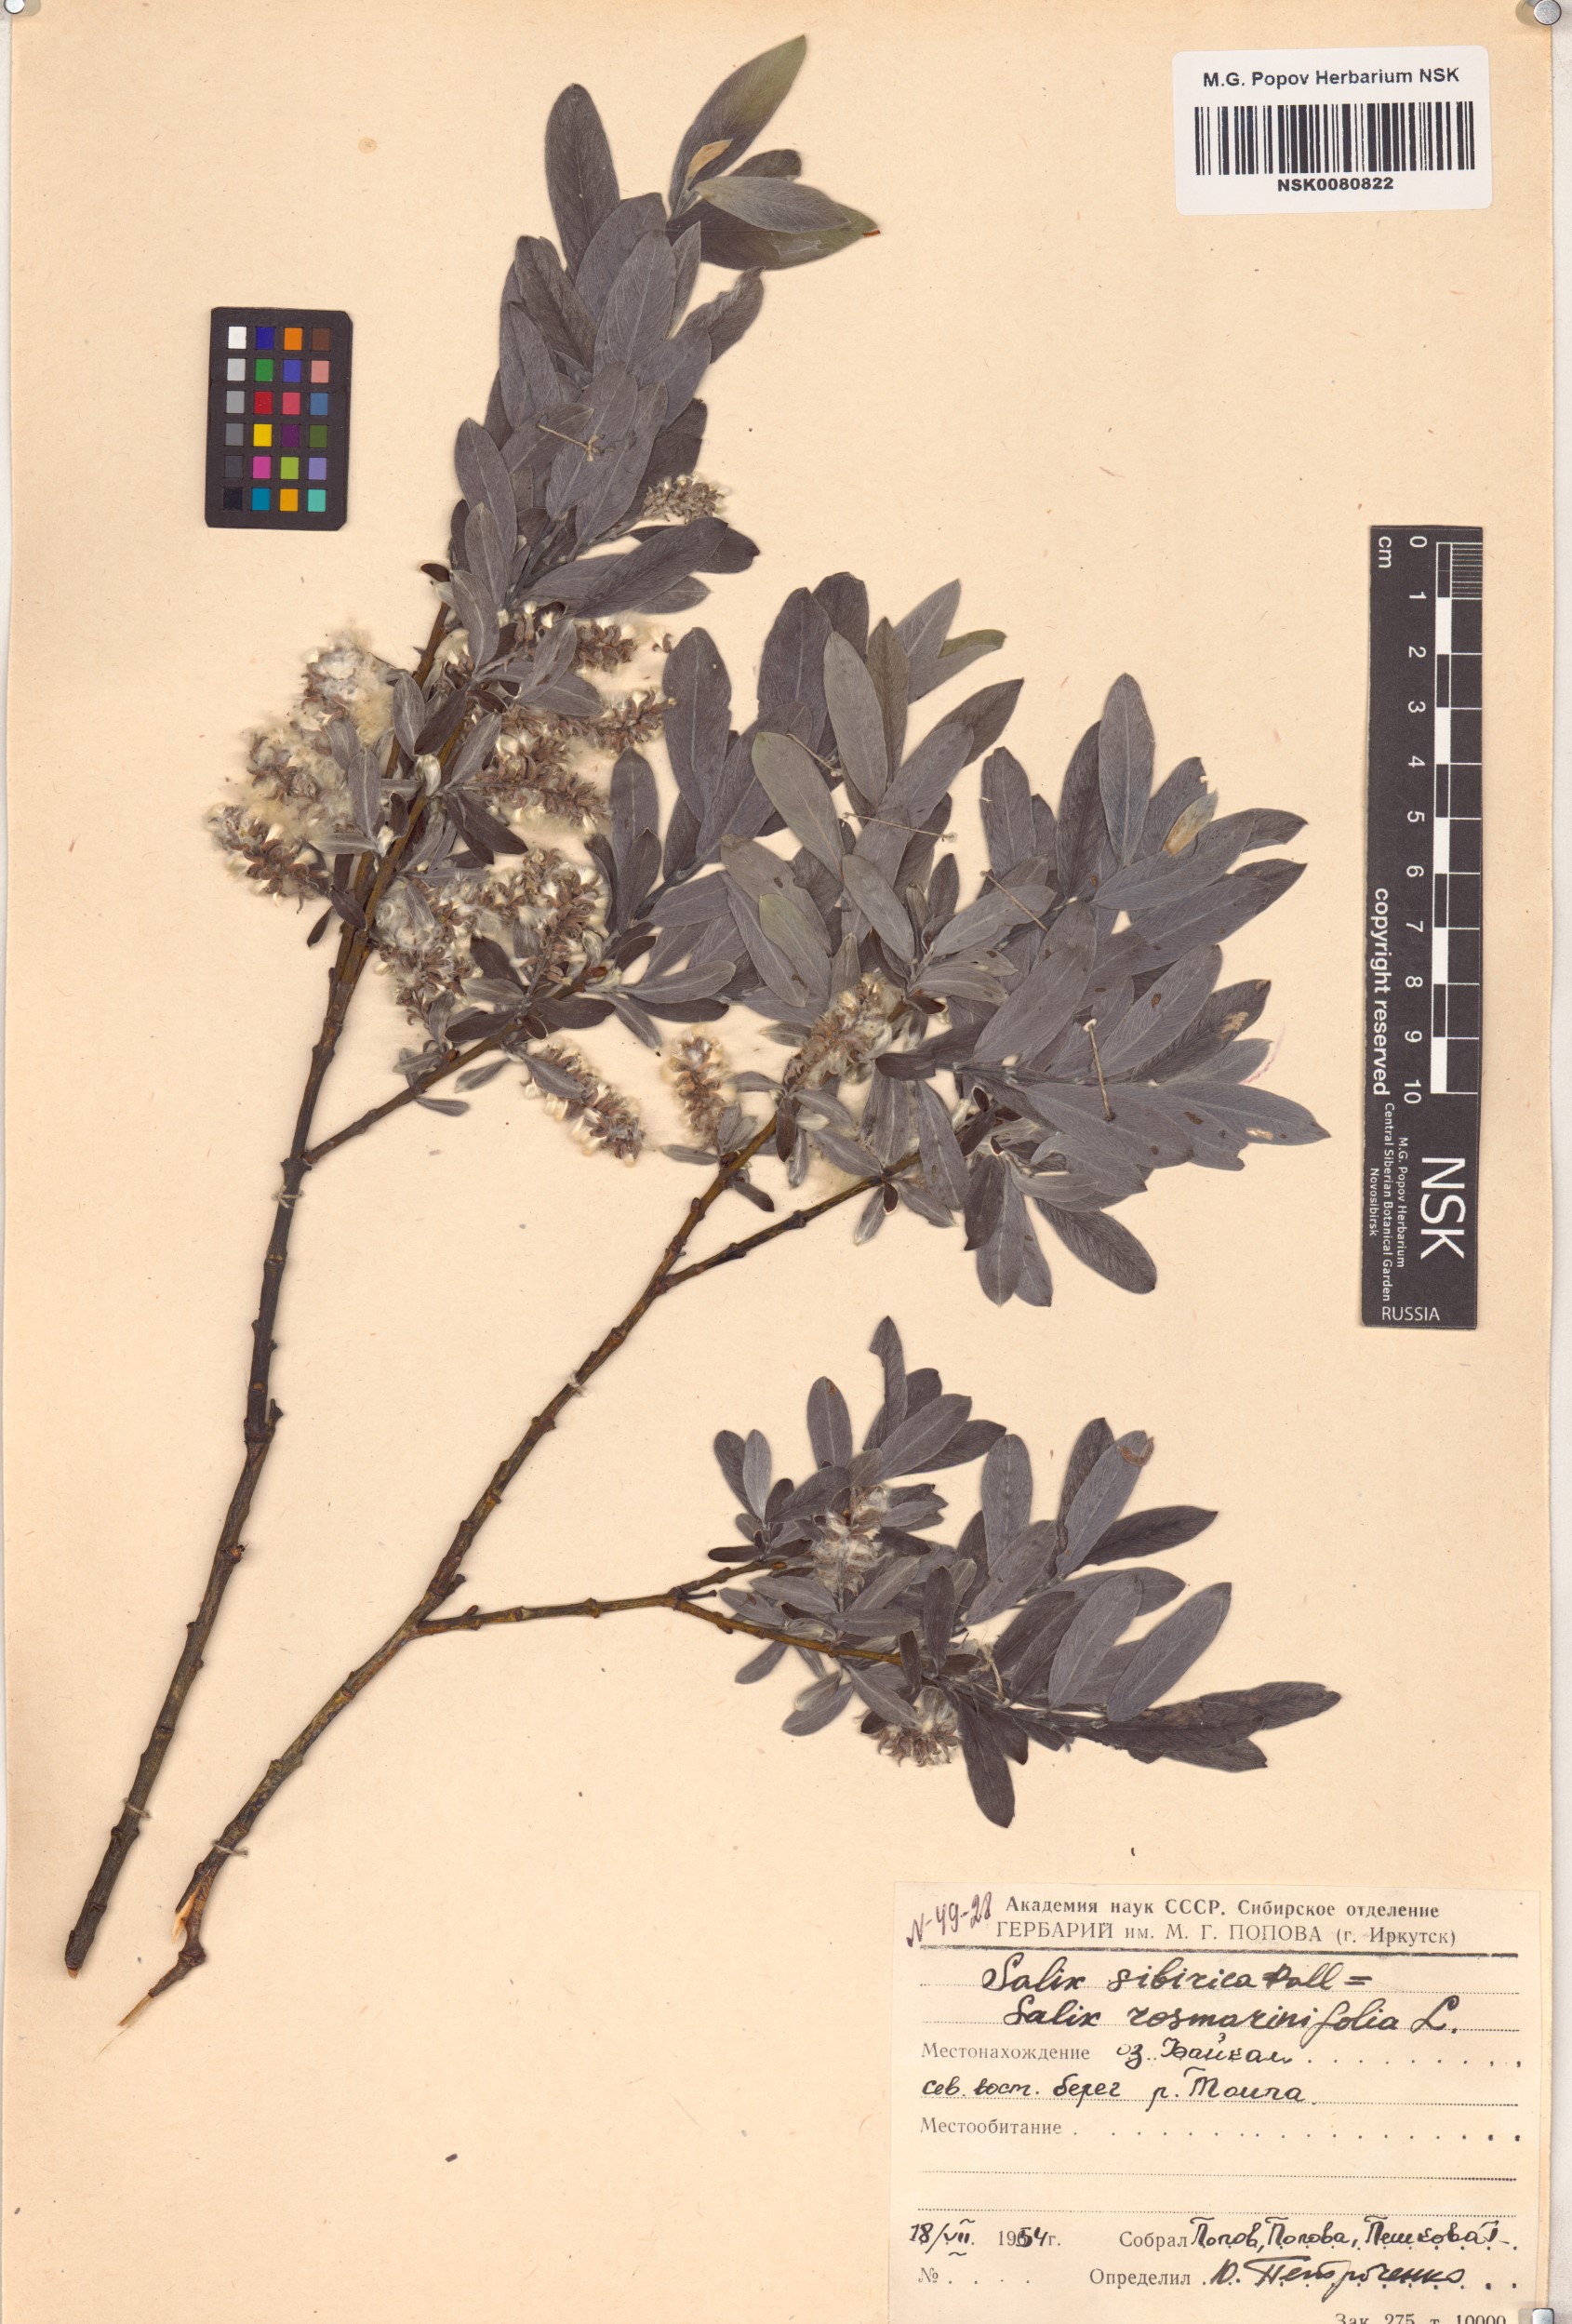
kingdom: Plantae
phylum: Tracheophyta
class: Magnoliopsida
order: Malpighiales
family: Salicaceae
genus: Salix
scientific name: Salix rosmarinifolia
